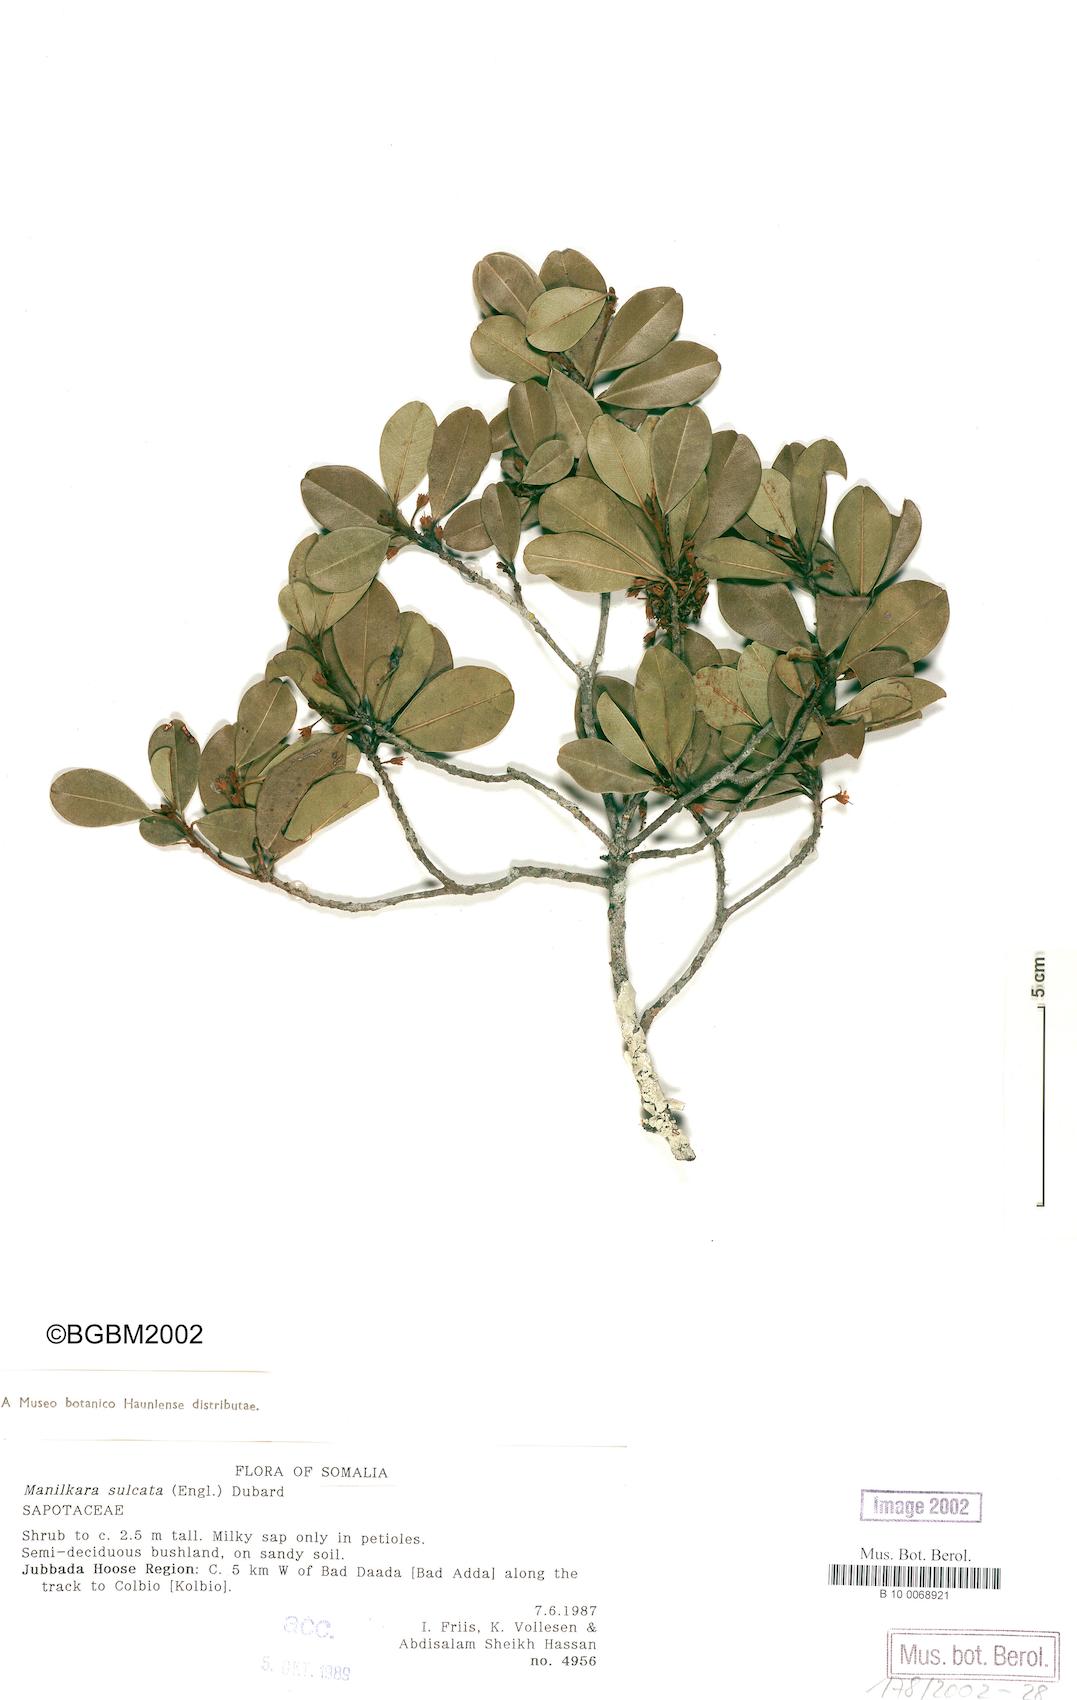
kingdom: Plantae
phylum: Tracheophyta
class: Magnoliopsida
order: Ericales
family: Sapotaceae
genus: Manilkara
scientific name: Manilkara sulcata
